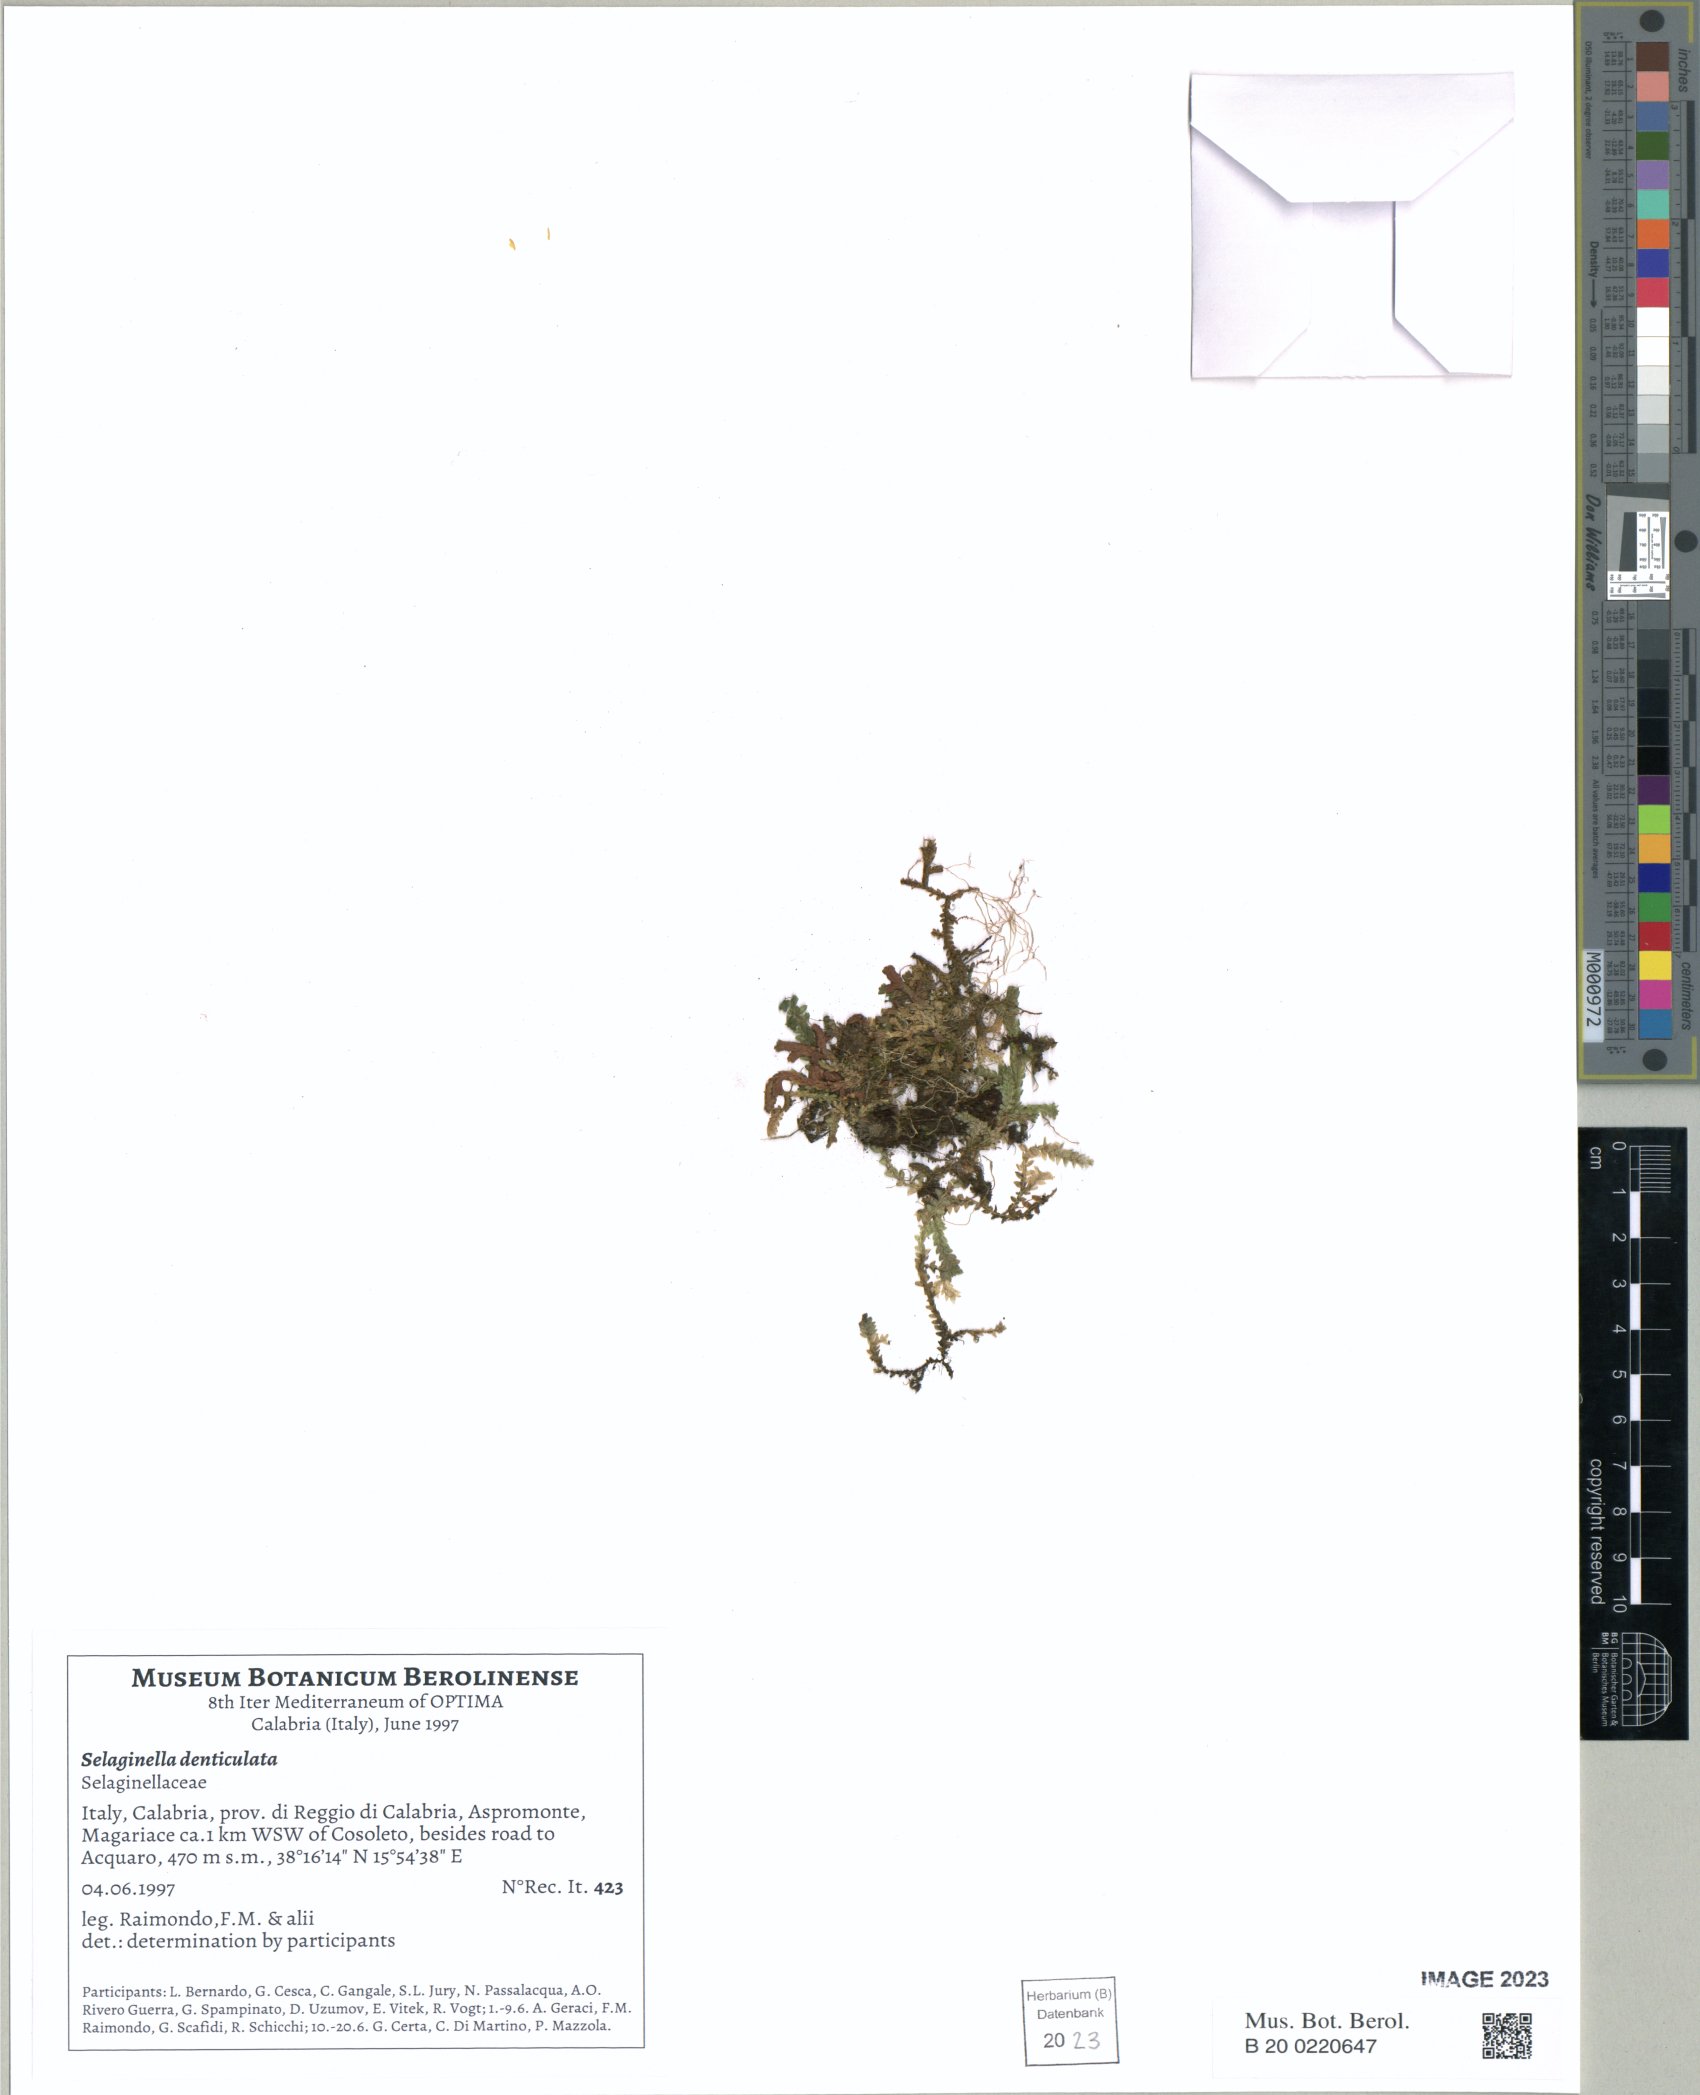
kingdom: Plantae
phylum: Tracheophyta
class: Lycopodiopsida
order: Selaginellales
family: Selaginellaceae
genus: Selaginella
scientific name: Selaginella denticulata
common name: Toothed-leaved clubmoss
